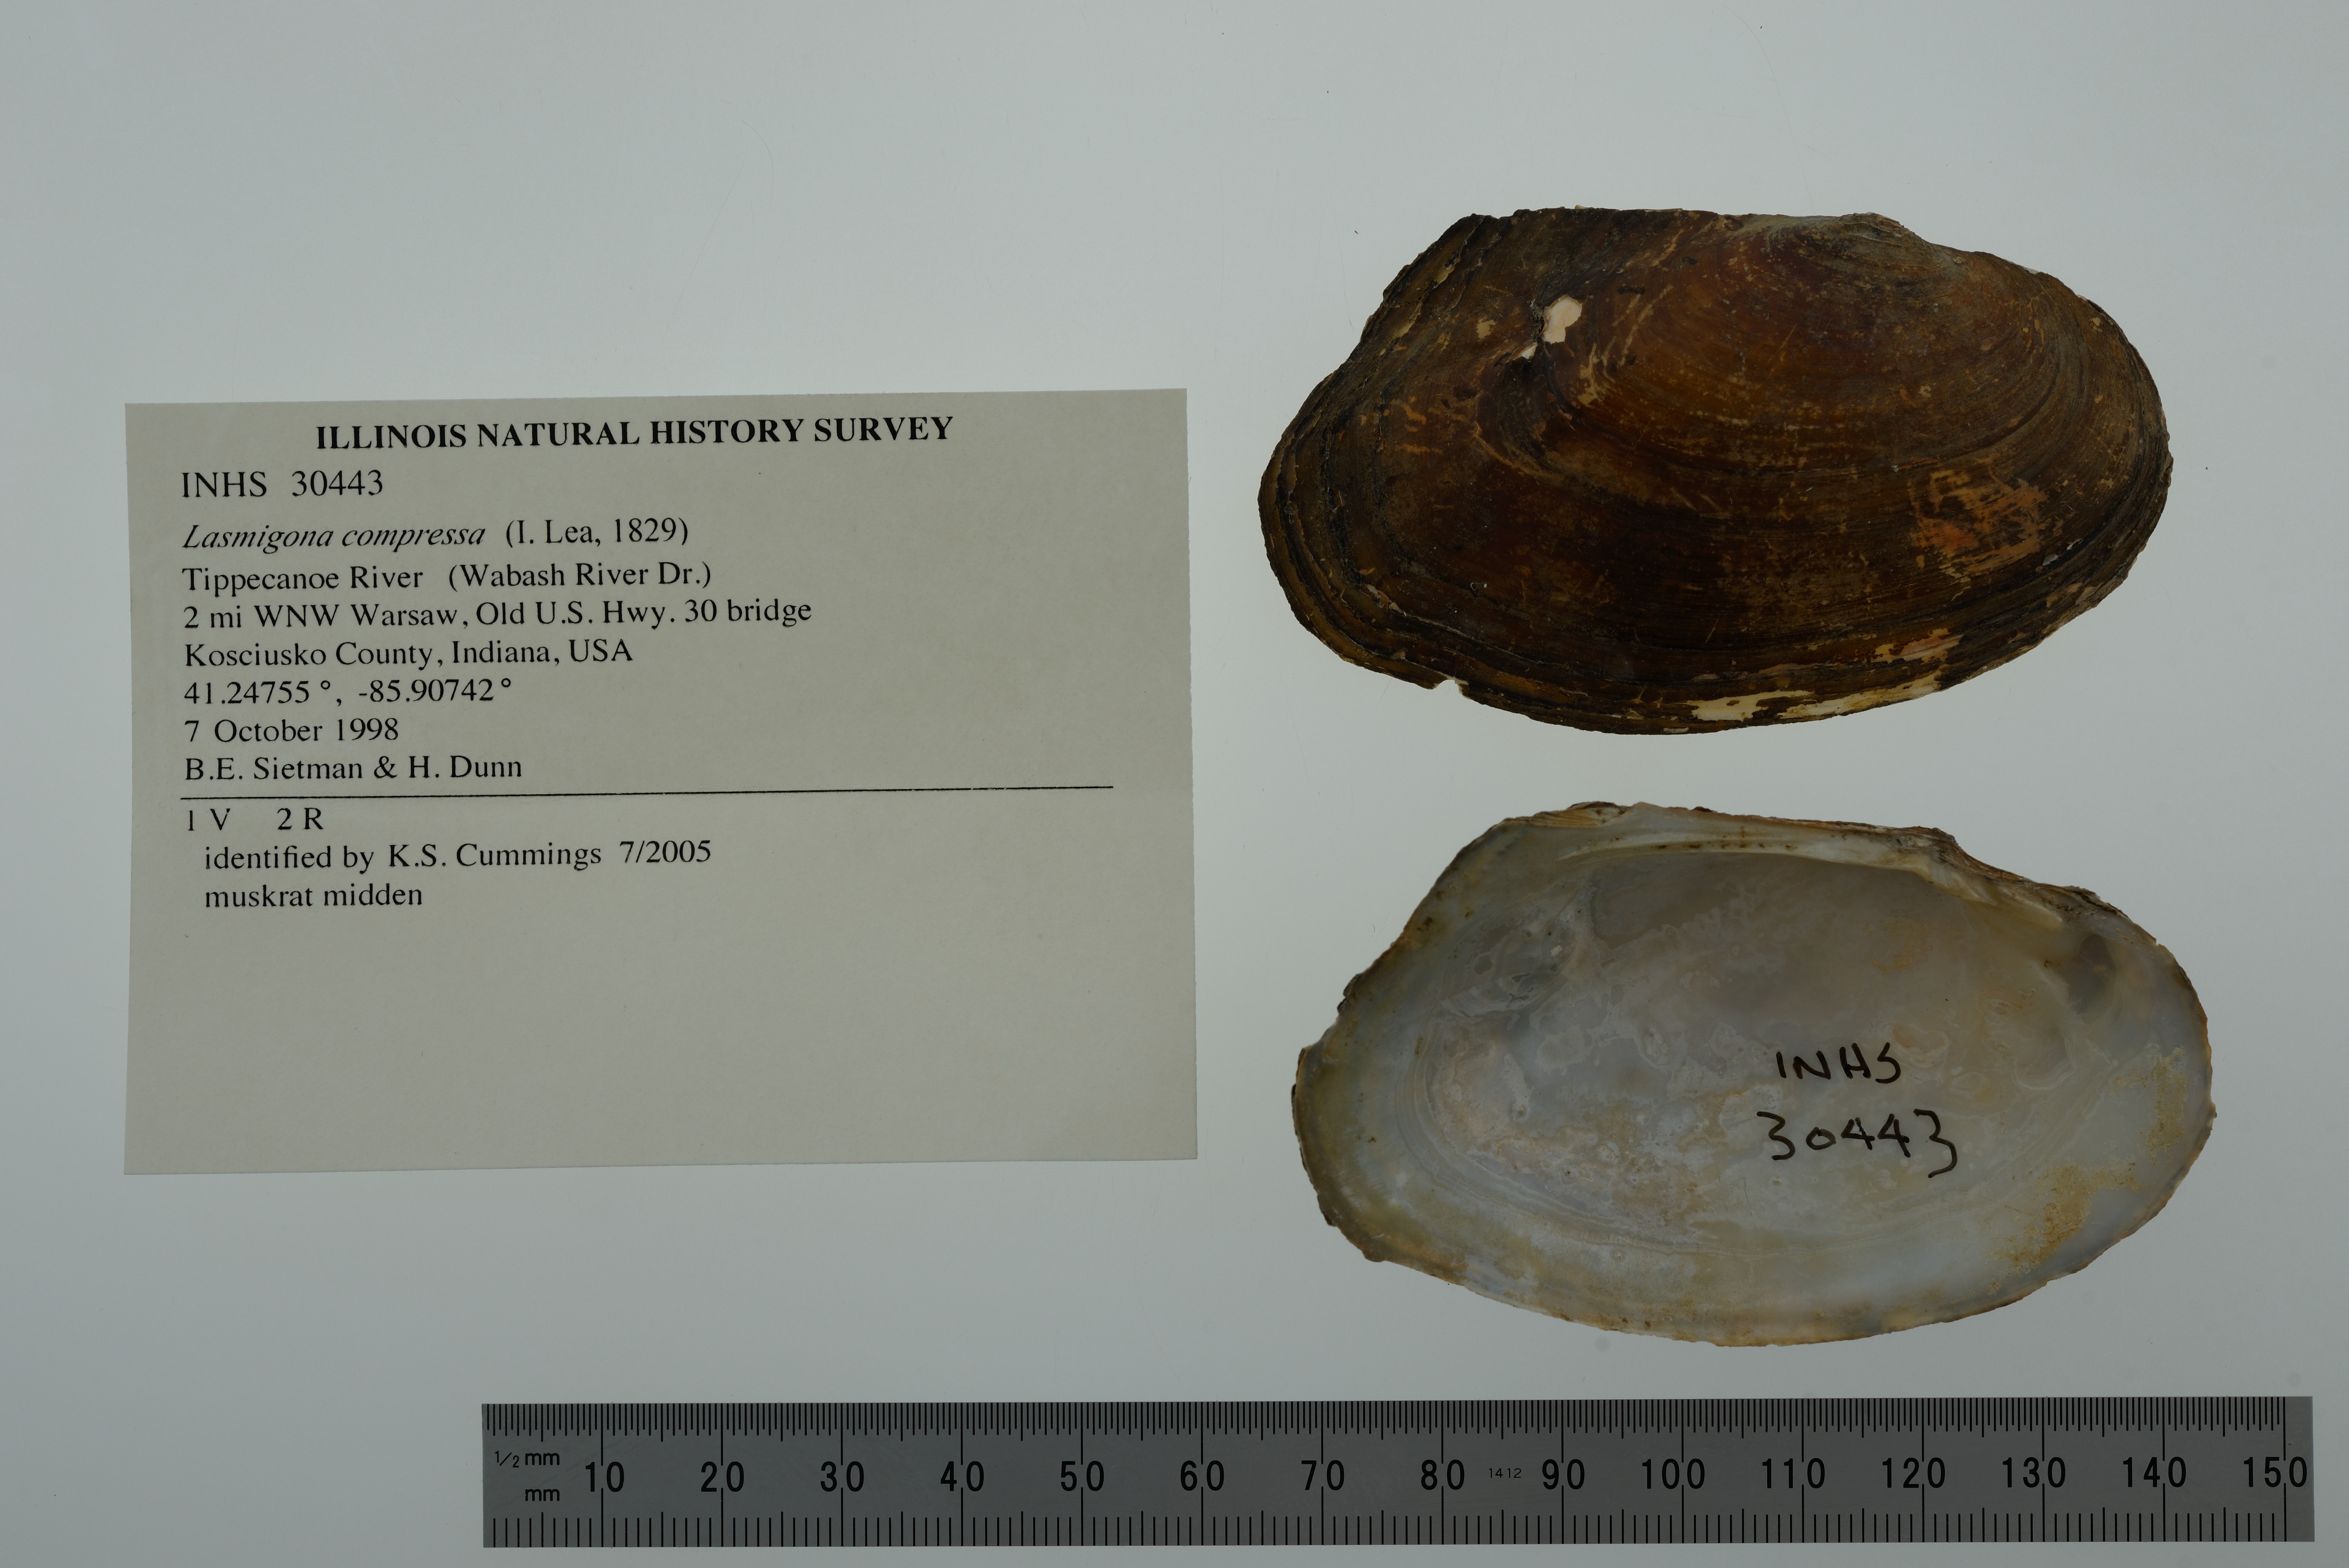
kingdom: Animalia
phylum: Mollusca
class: Bivalvia
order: Unionida
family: Unionidae
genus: Lasmigona
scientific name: Lasmigona compressa
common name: Creek heelsplitter
